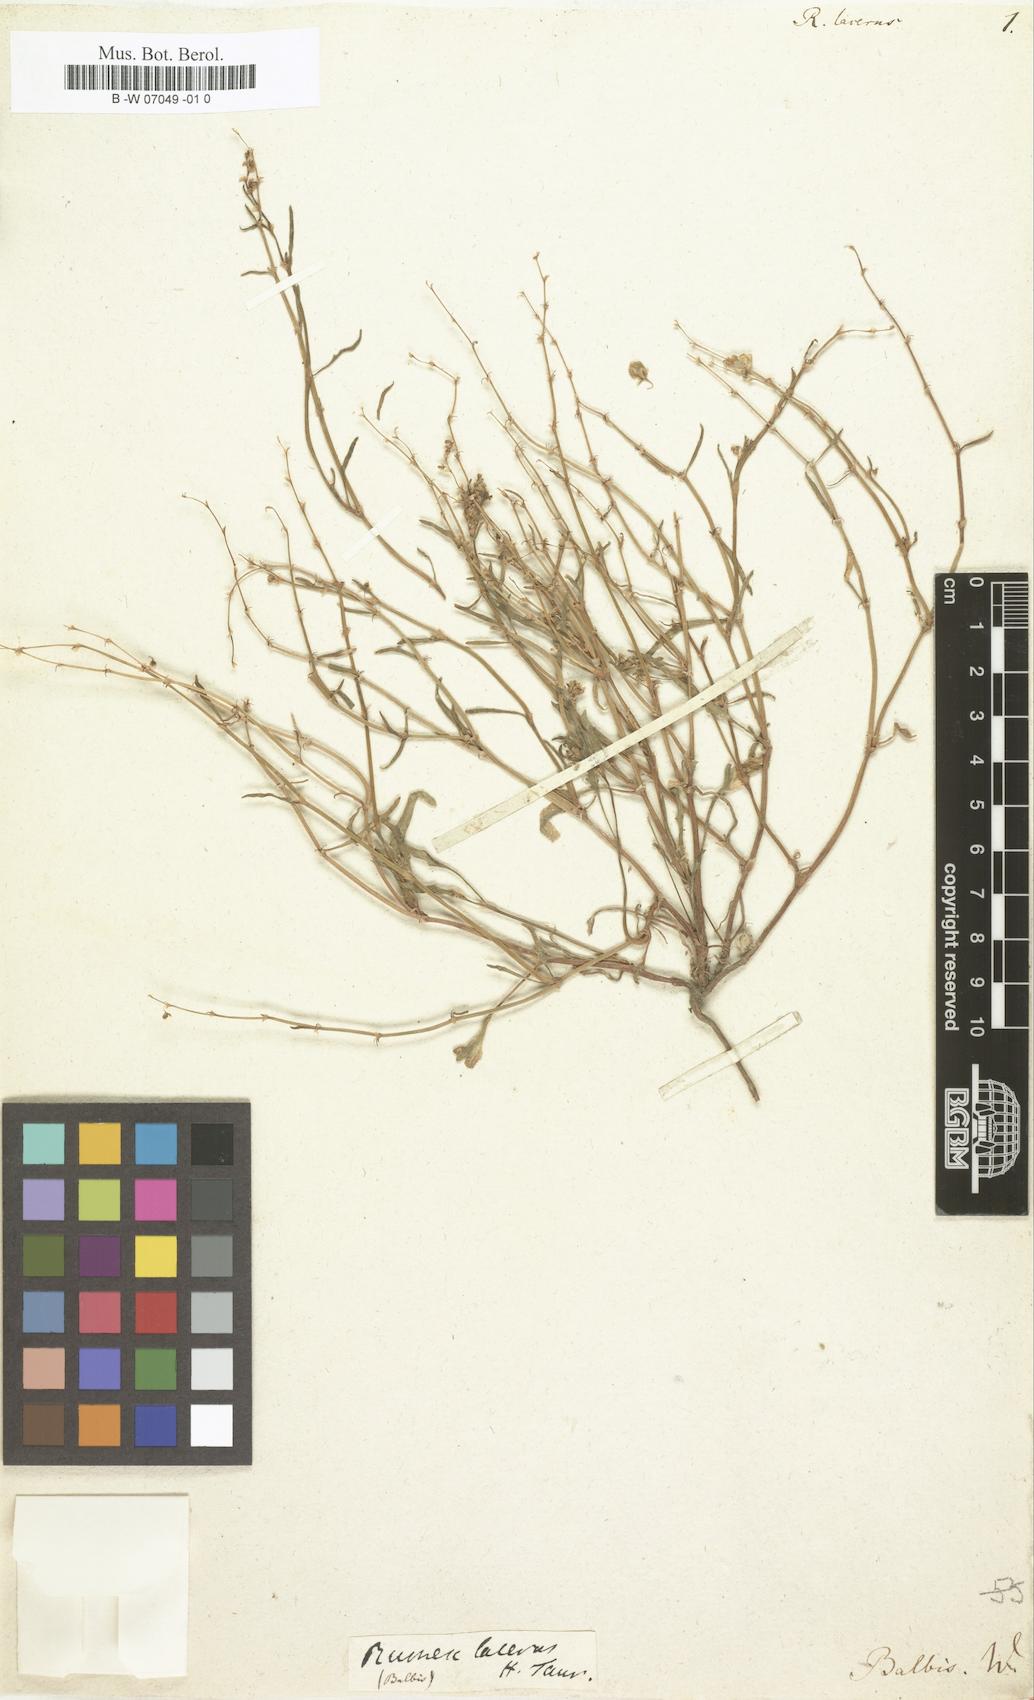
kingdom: Plantae
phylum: Tracheophyta
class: Magnoliopsida
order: Caryophyllales
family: Polygonaceae
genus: Rumex
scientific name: Rumex
